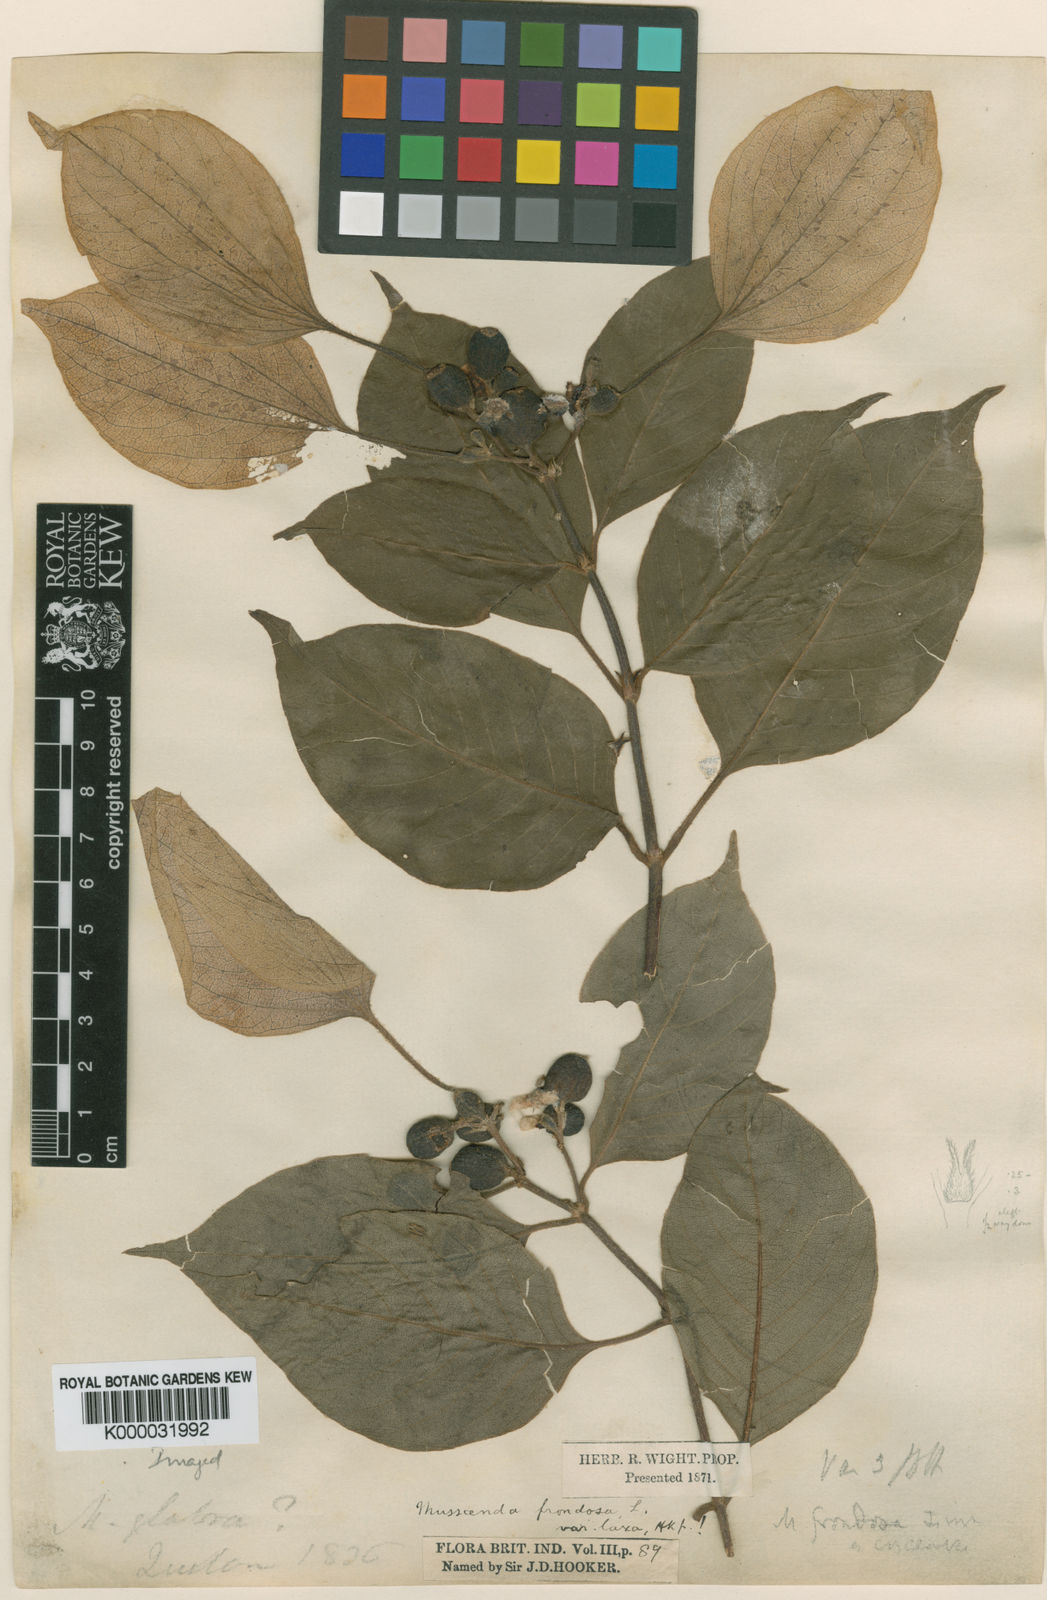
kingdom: Plantae
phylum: Tracheophyta
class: Magnoliopsida
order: Gentianales
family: Rubiaceae
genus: Mussaenda
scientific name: Mussaenda laxa
